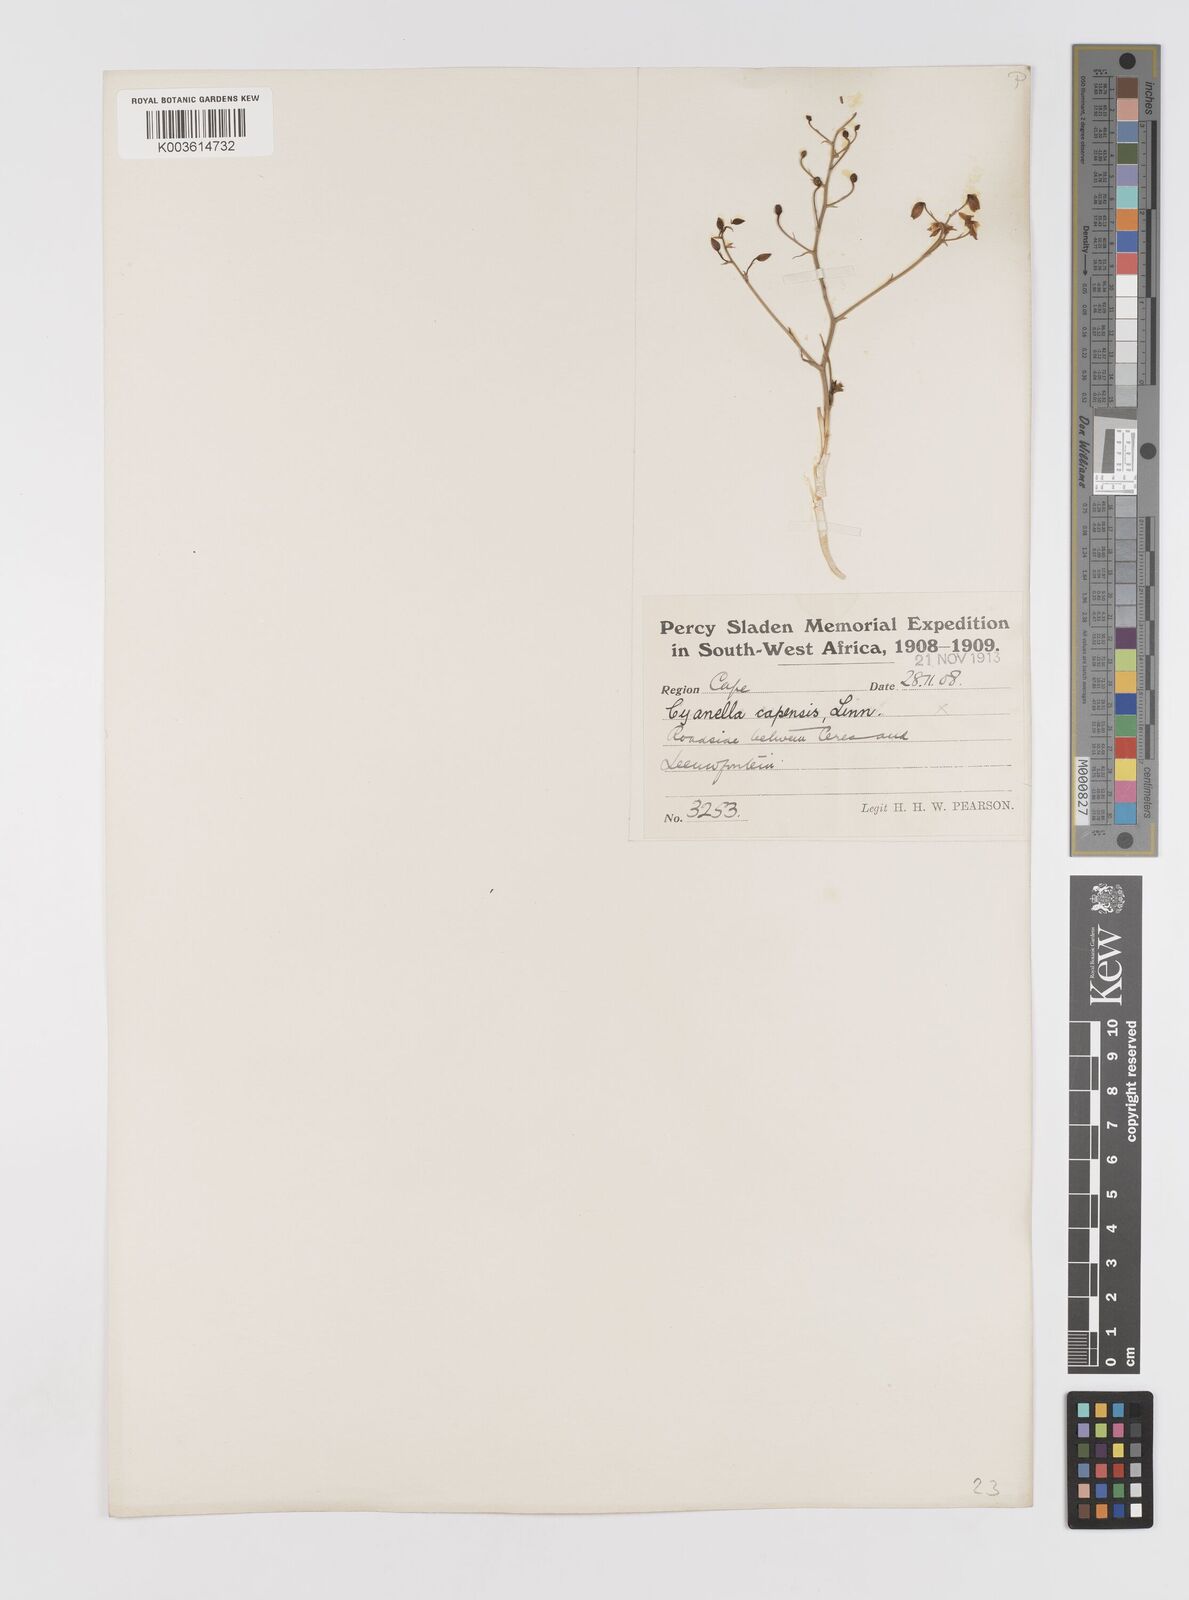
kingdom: Plantae
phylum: Tracheophyta
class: Liliopsida
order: Asparagales
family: Tecophilaeaceae
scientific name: Tecophilaeaceae
